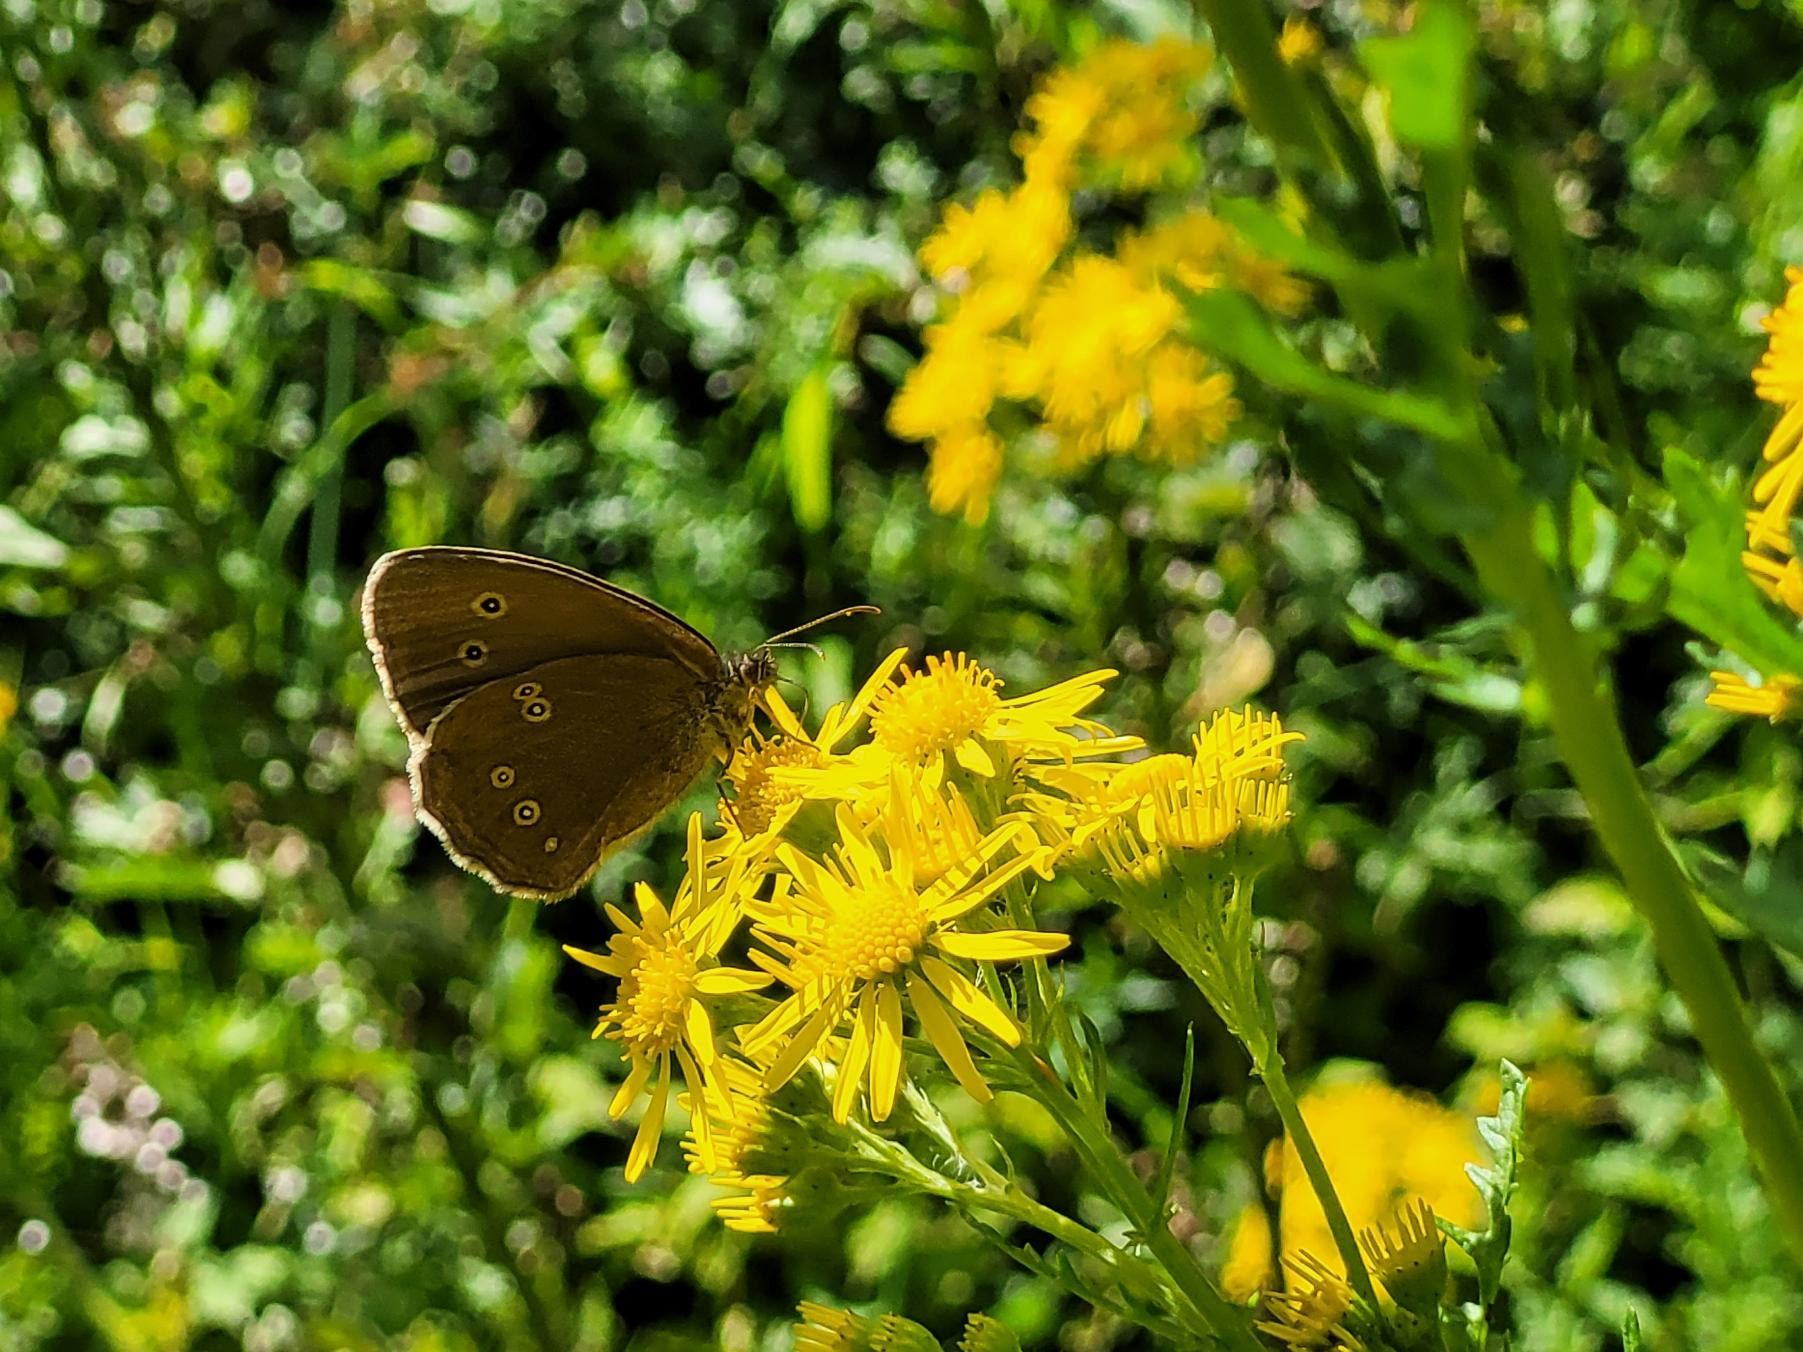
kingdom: Animalia
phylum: Arthropoda
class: Insecta
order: Lepidoptera
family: Nymphalidae
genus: Aphantopus
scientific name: Aphantopus hyperantus
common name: Engrandøje
